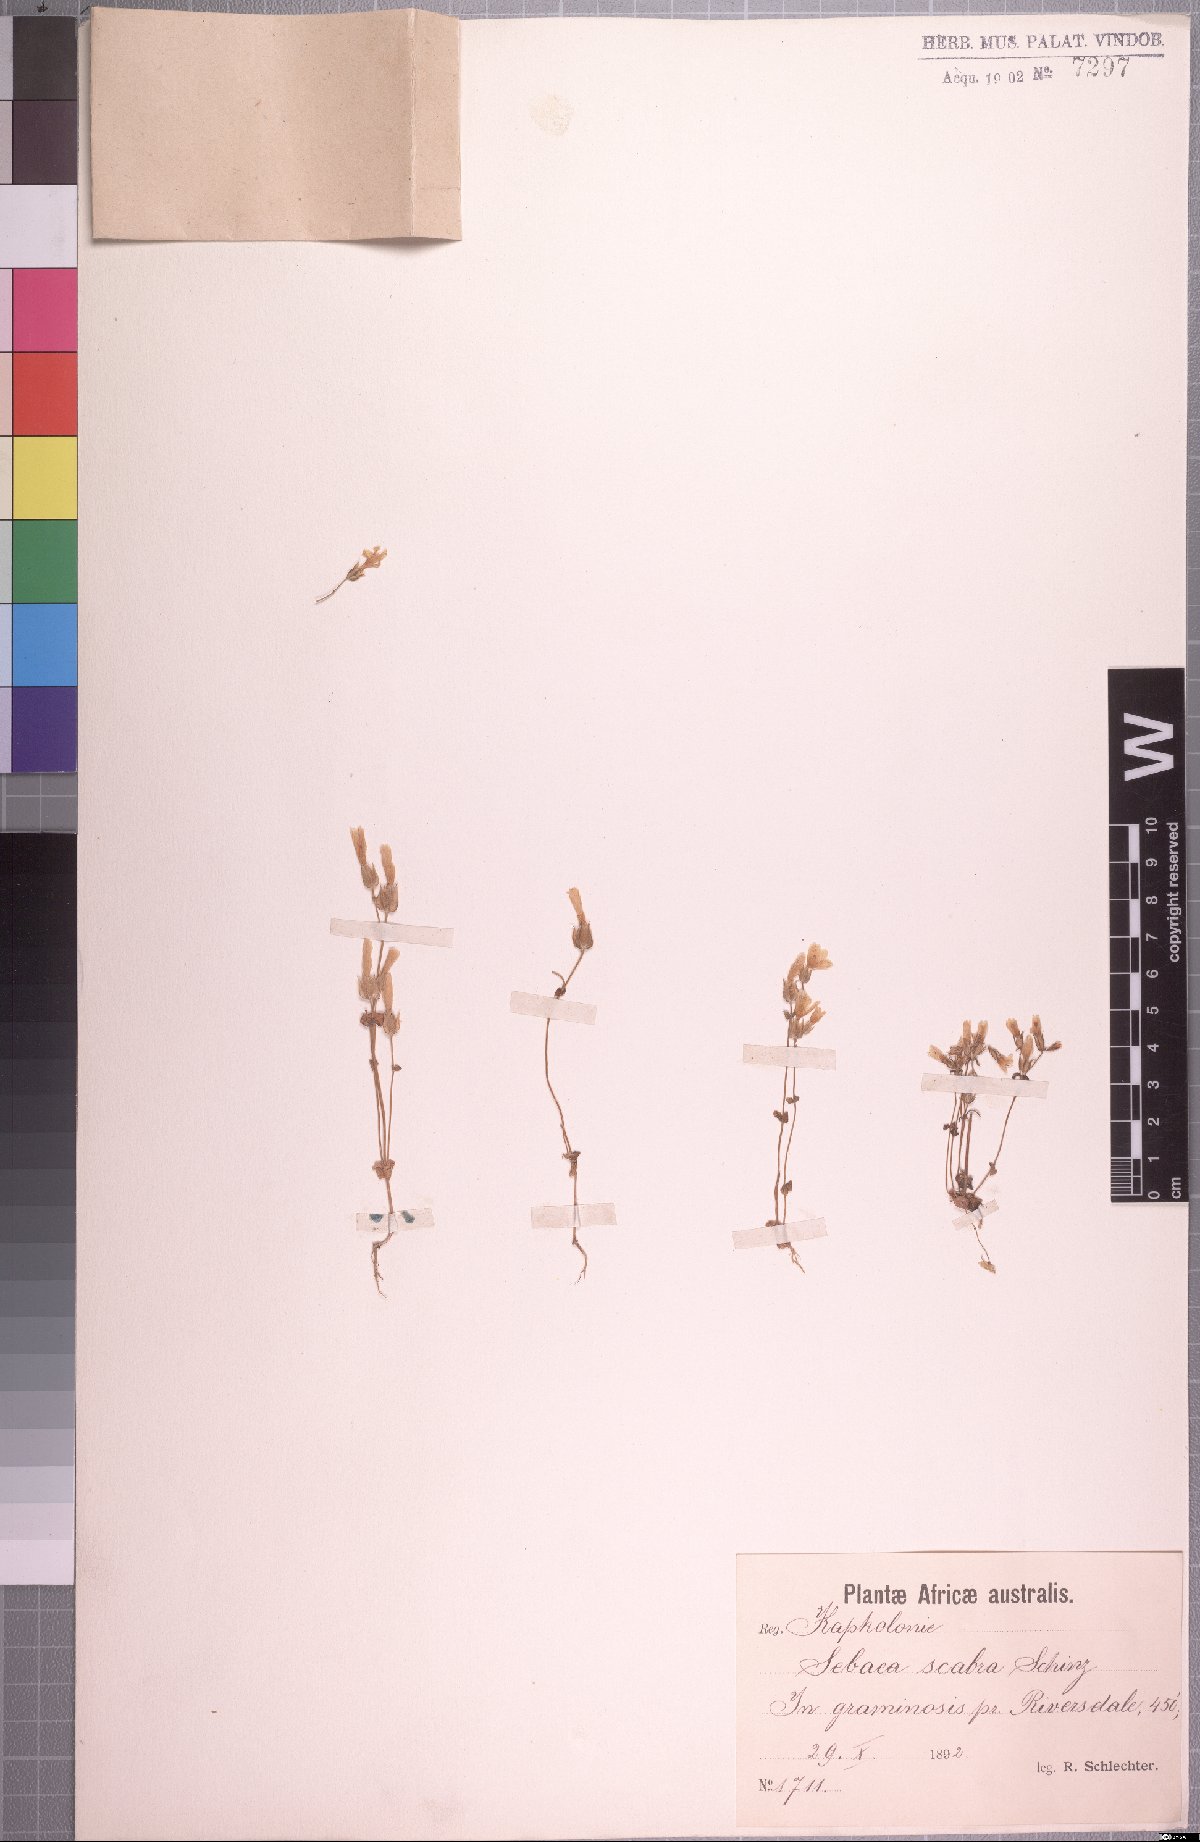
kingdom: Plantae
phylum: Tracheophyta
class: Magnoliopsida
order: Gentianales
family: Gentianaceae
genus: Sebaea
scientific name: Sebaea scabra
